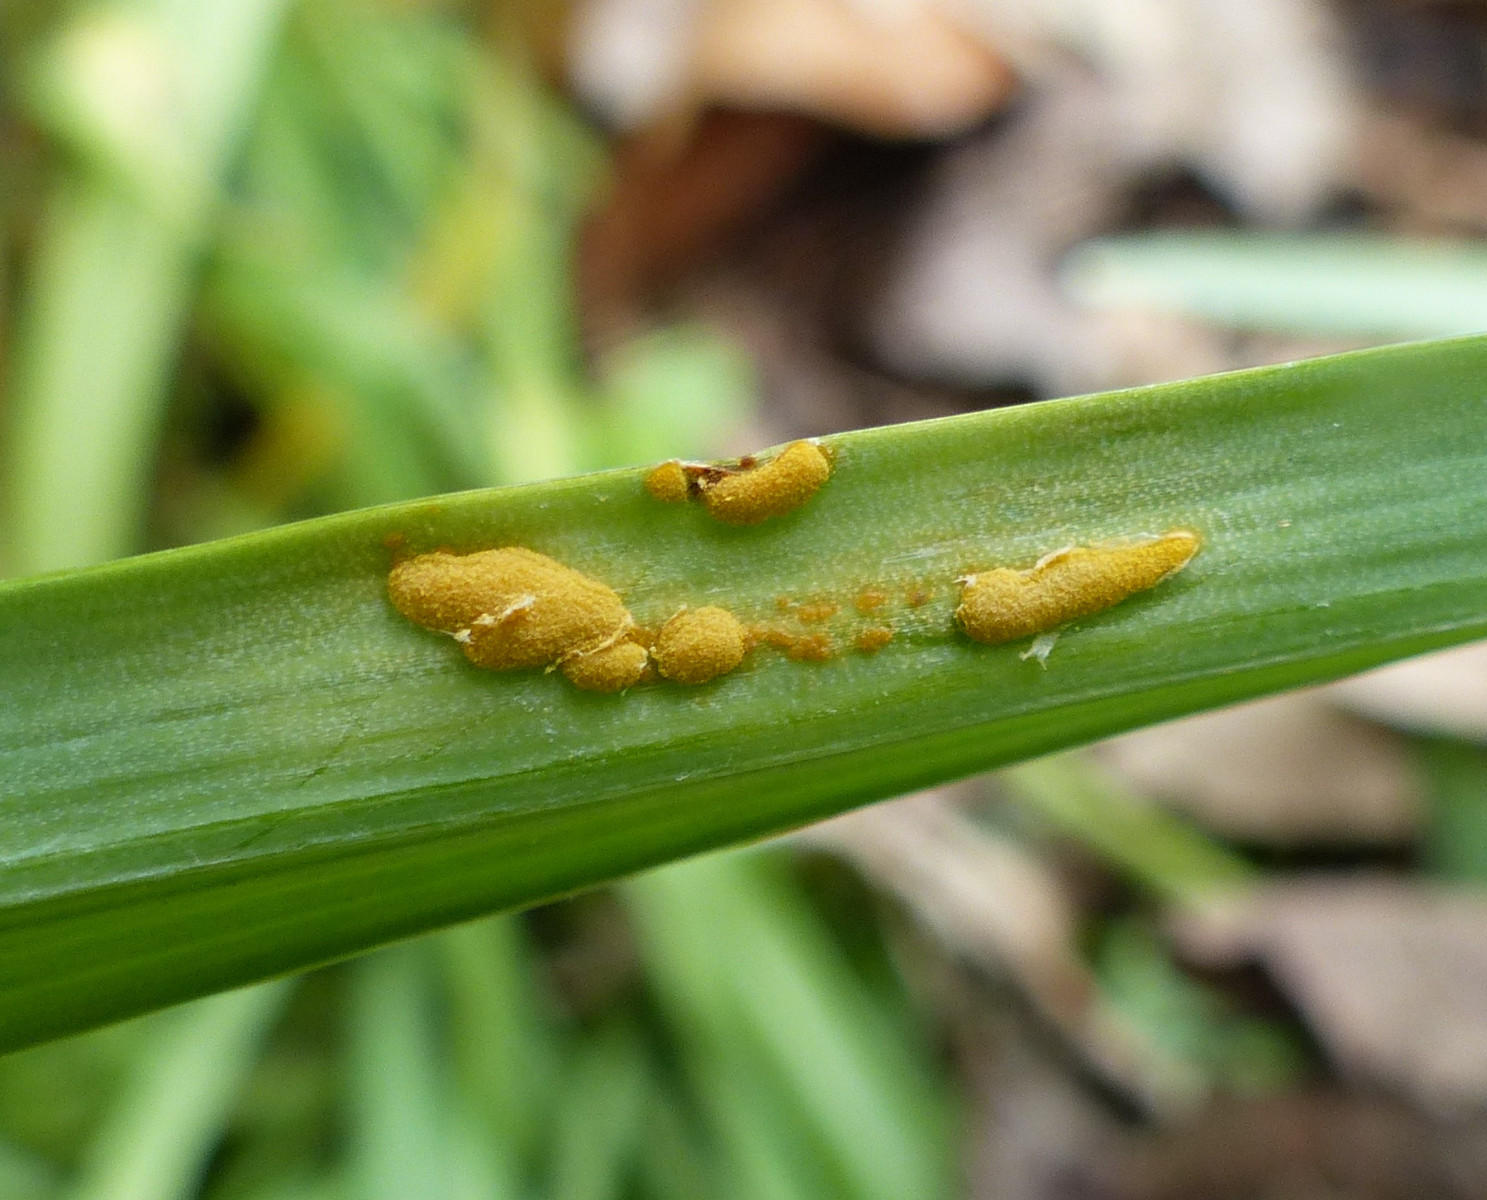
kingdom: Fungi
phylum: Basidiomycota
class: Pucciniomycetes
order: Pucciniales
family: Melampsoraceae
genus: Melampsora
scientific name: Melampsora galanthi-fragilis
